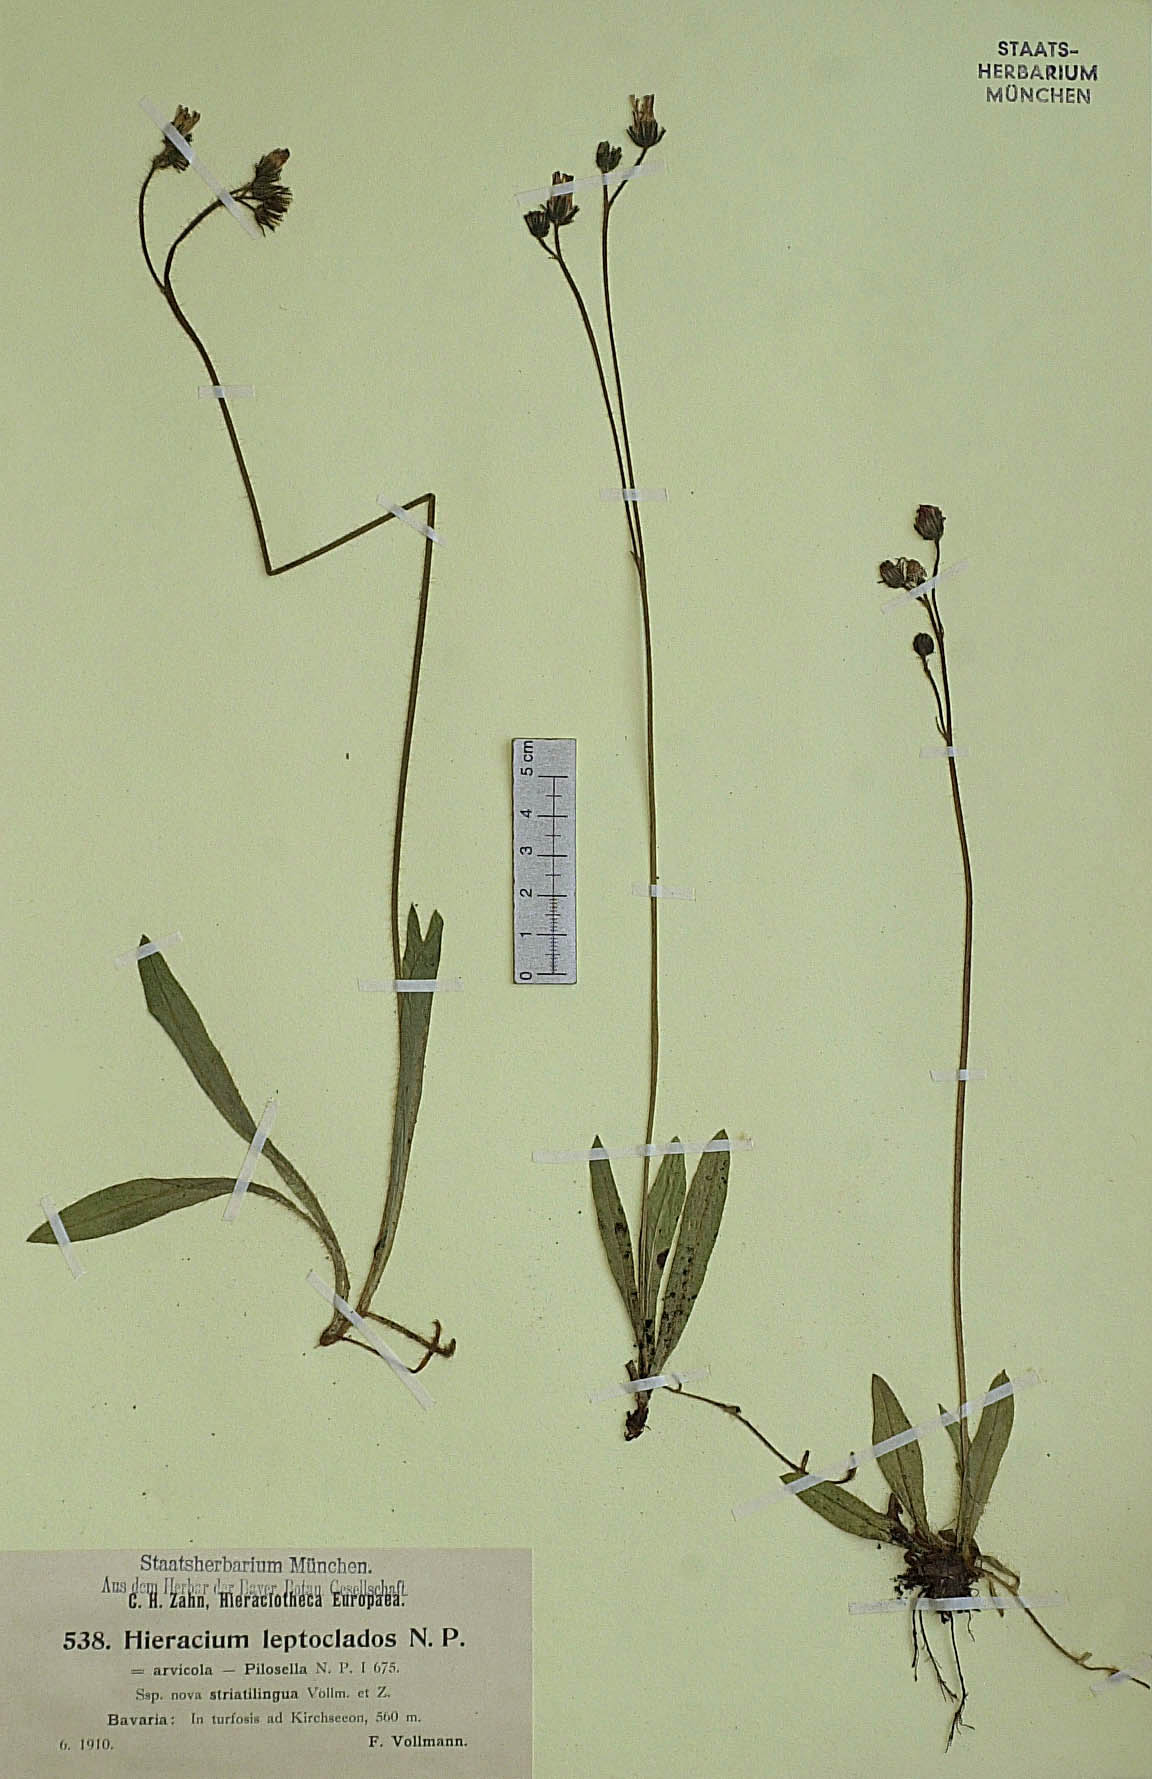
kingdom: Plantae
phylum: Tracheophyta
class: Magnoliopsida
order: Asterales
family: Asteraceae
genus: Pilosella
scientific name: Pilosella leptoclados
